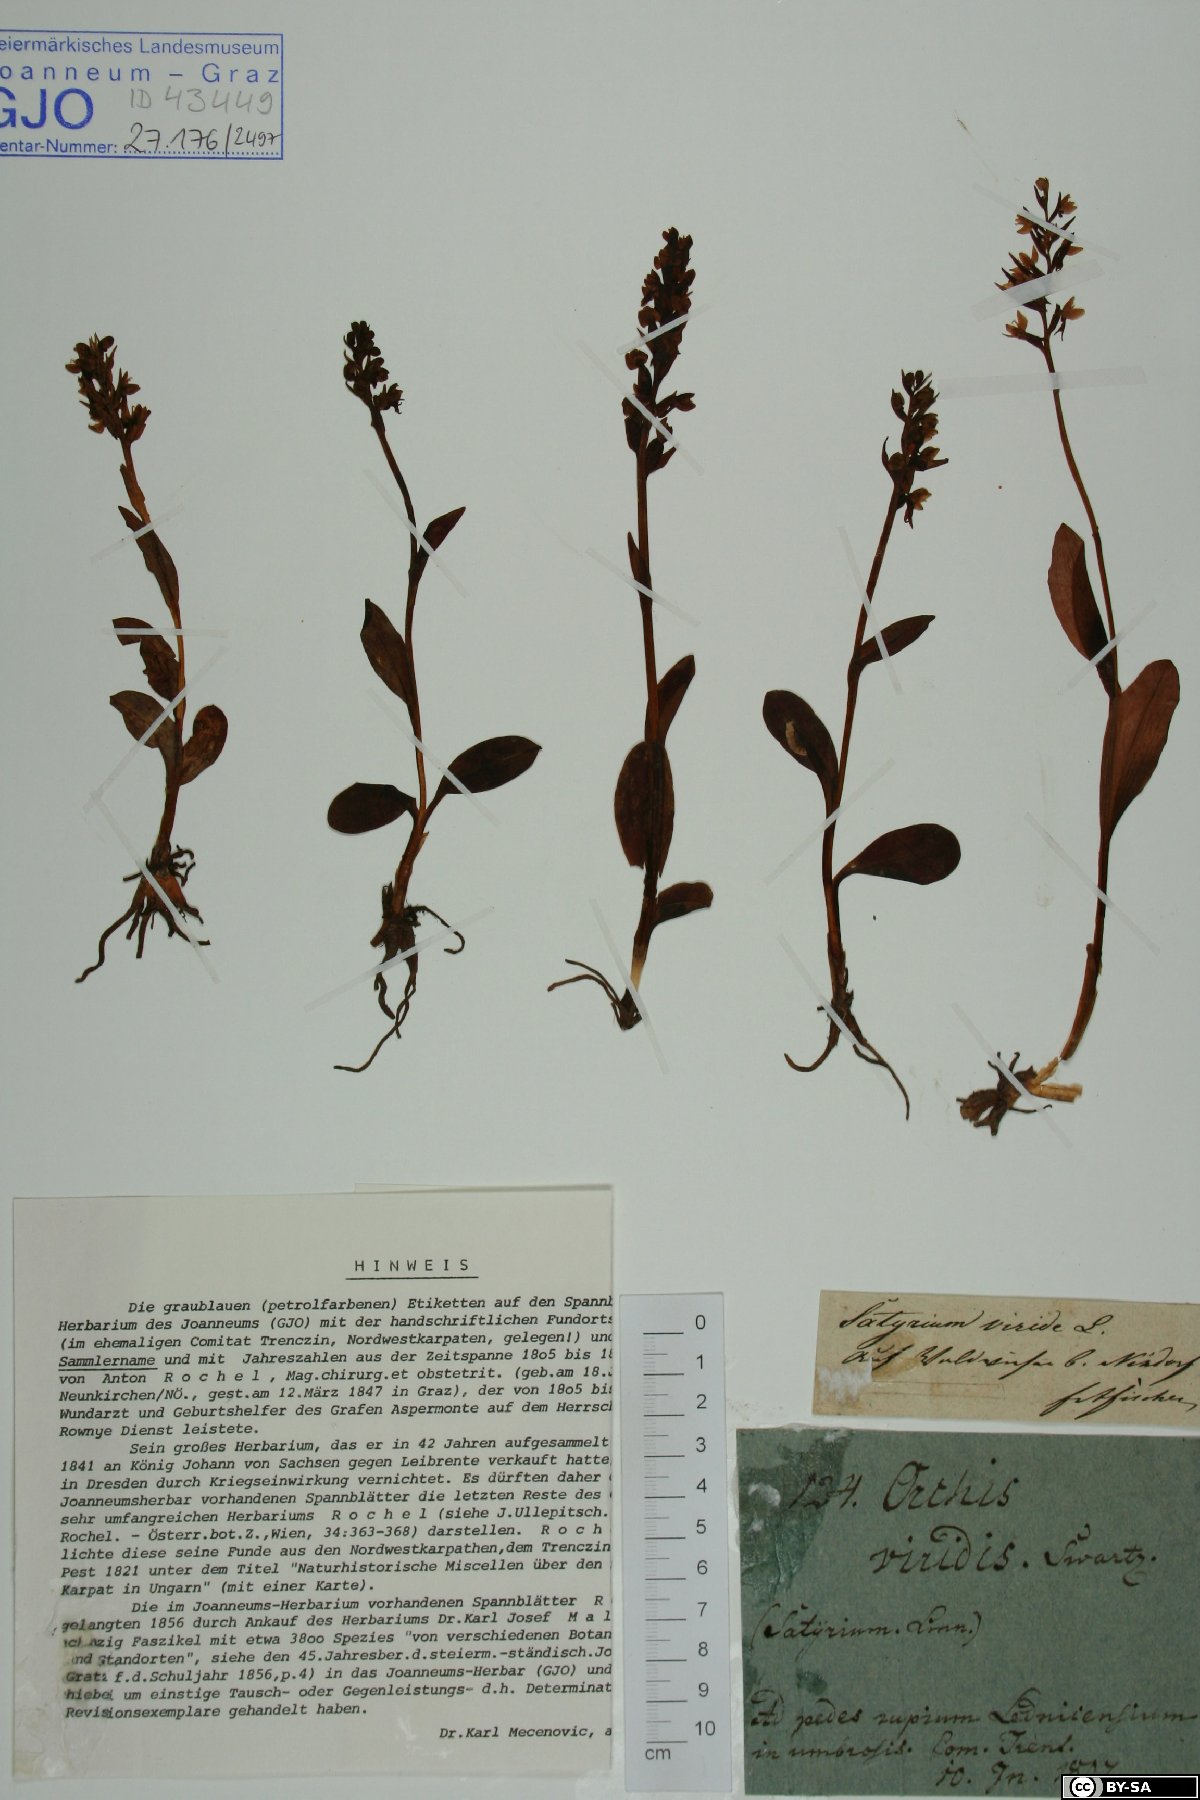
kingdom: Plantae
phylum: Tracheophyta
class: Liliopsida
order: Asparagales
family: Orchidaceae
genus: Dactylorhiza
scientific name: Dactylorhiza viridis
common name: Longbract frog orchid
